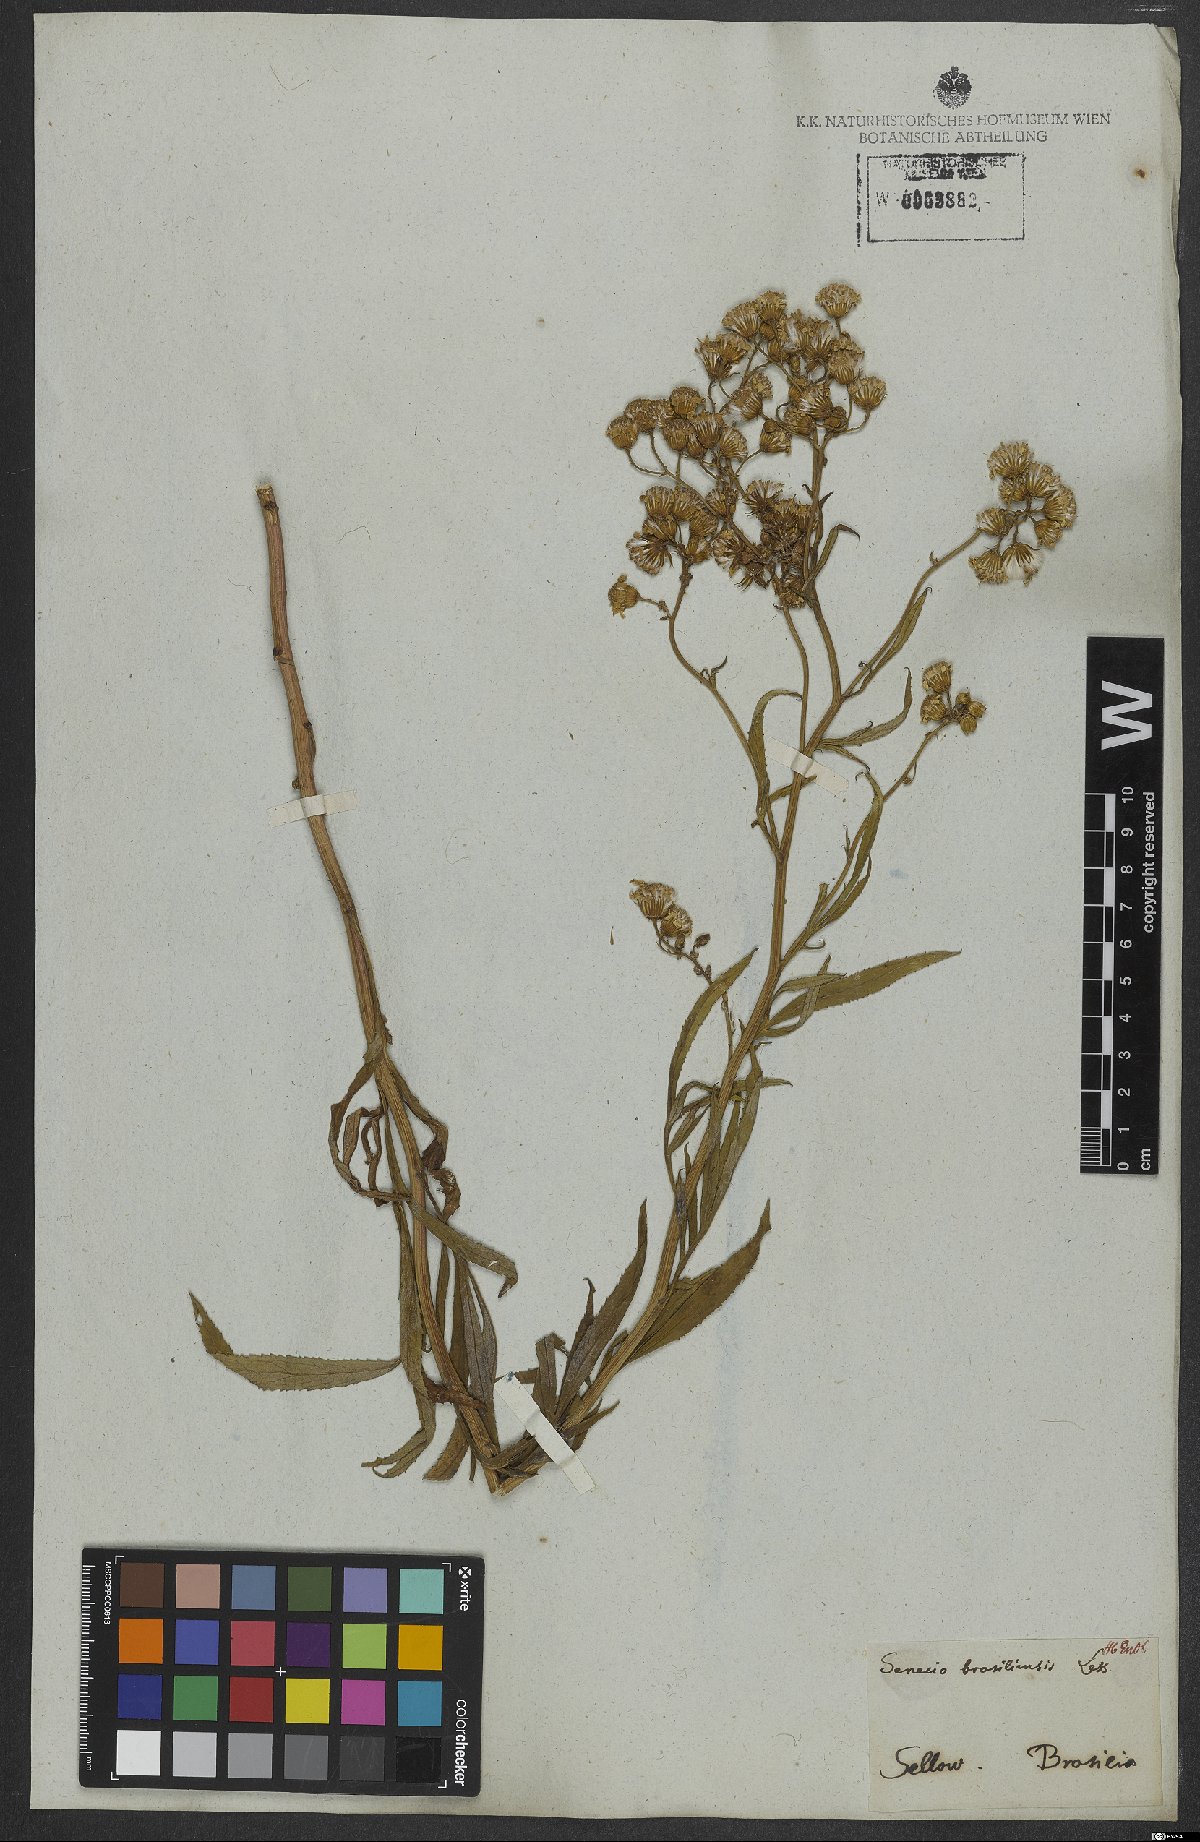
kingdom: Plantae
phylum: Tracheophyta
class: Magnoliopsida
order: Asterales
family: Asteraceae
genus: Senecio
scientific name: Senecio brasiliensis
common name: Hemp-leaf ragwort
